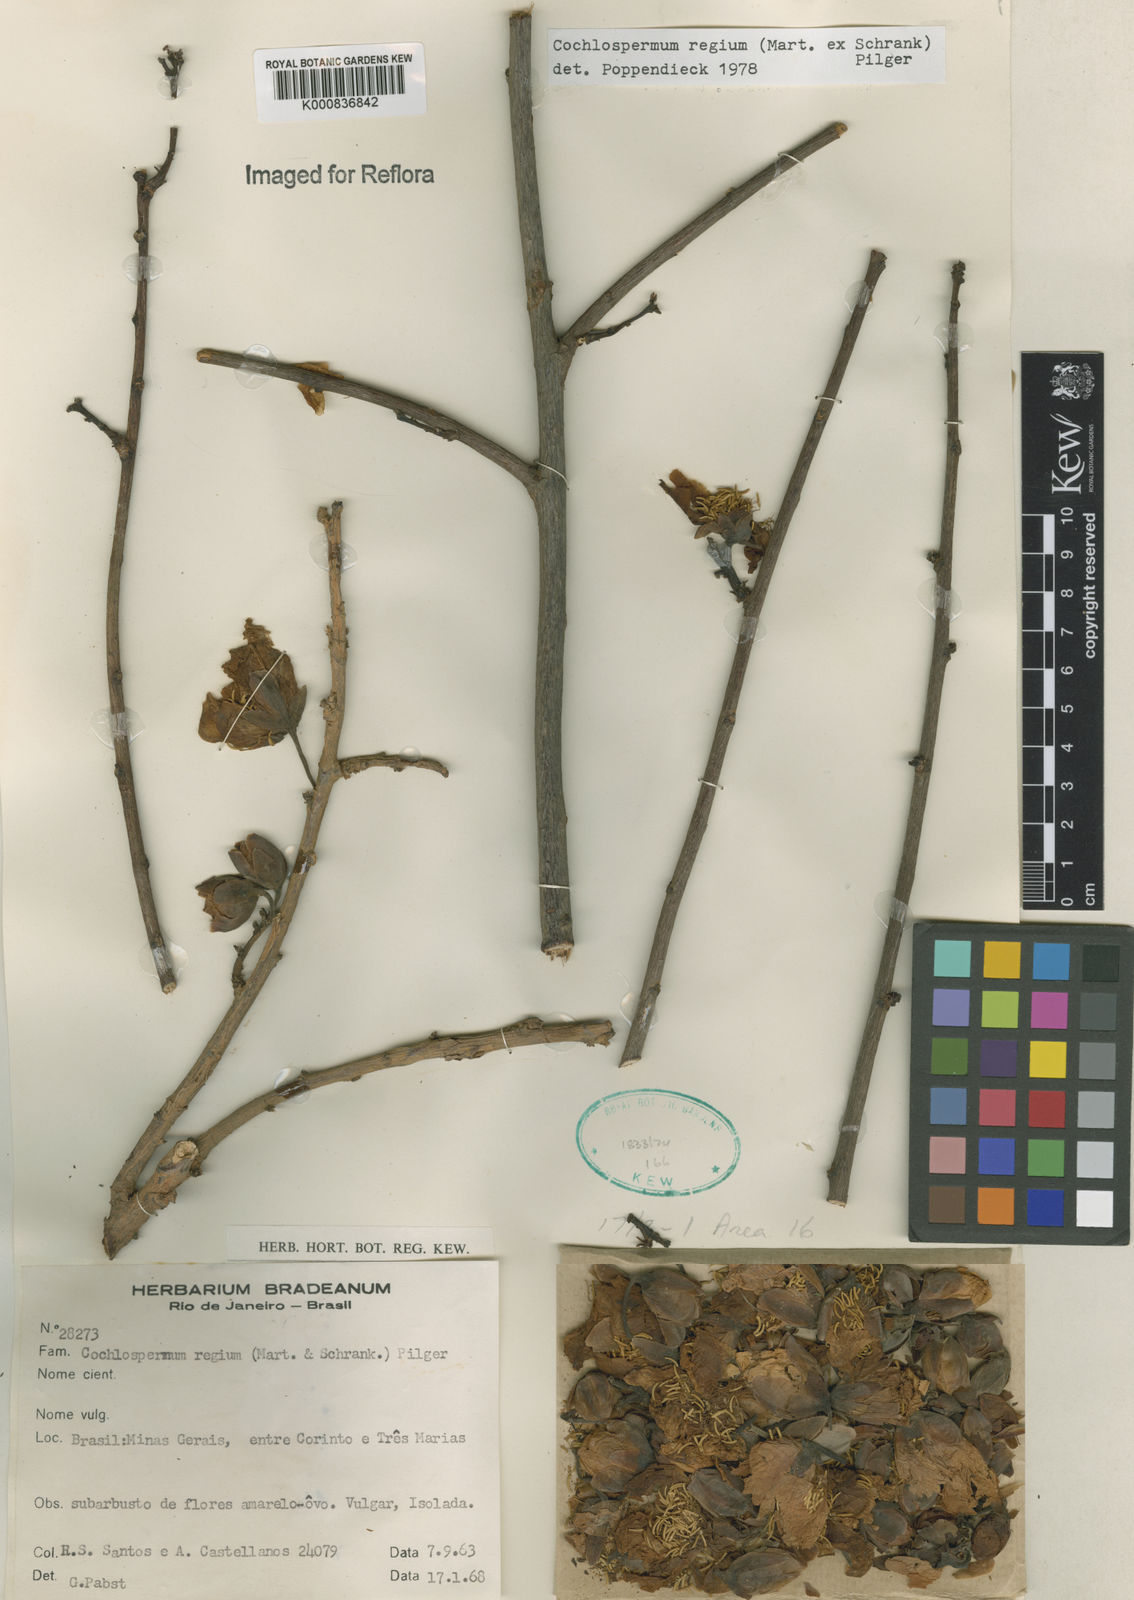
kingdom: Plantae
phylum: Tracheophyta
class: Magnoliopsida
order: Malvales
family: Cochlospermaceae
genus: Cochlospermum
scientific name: Cochlospermum regium
